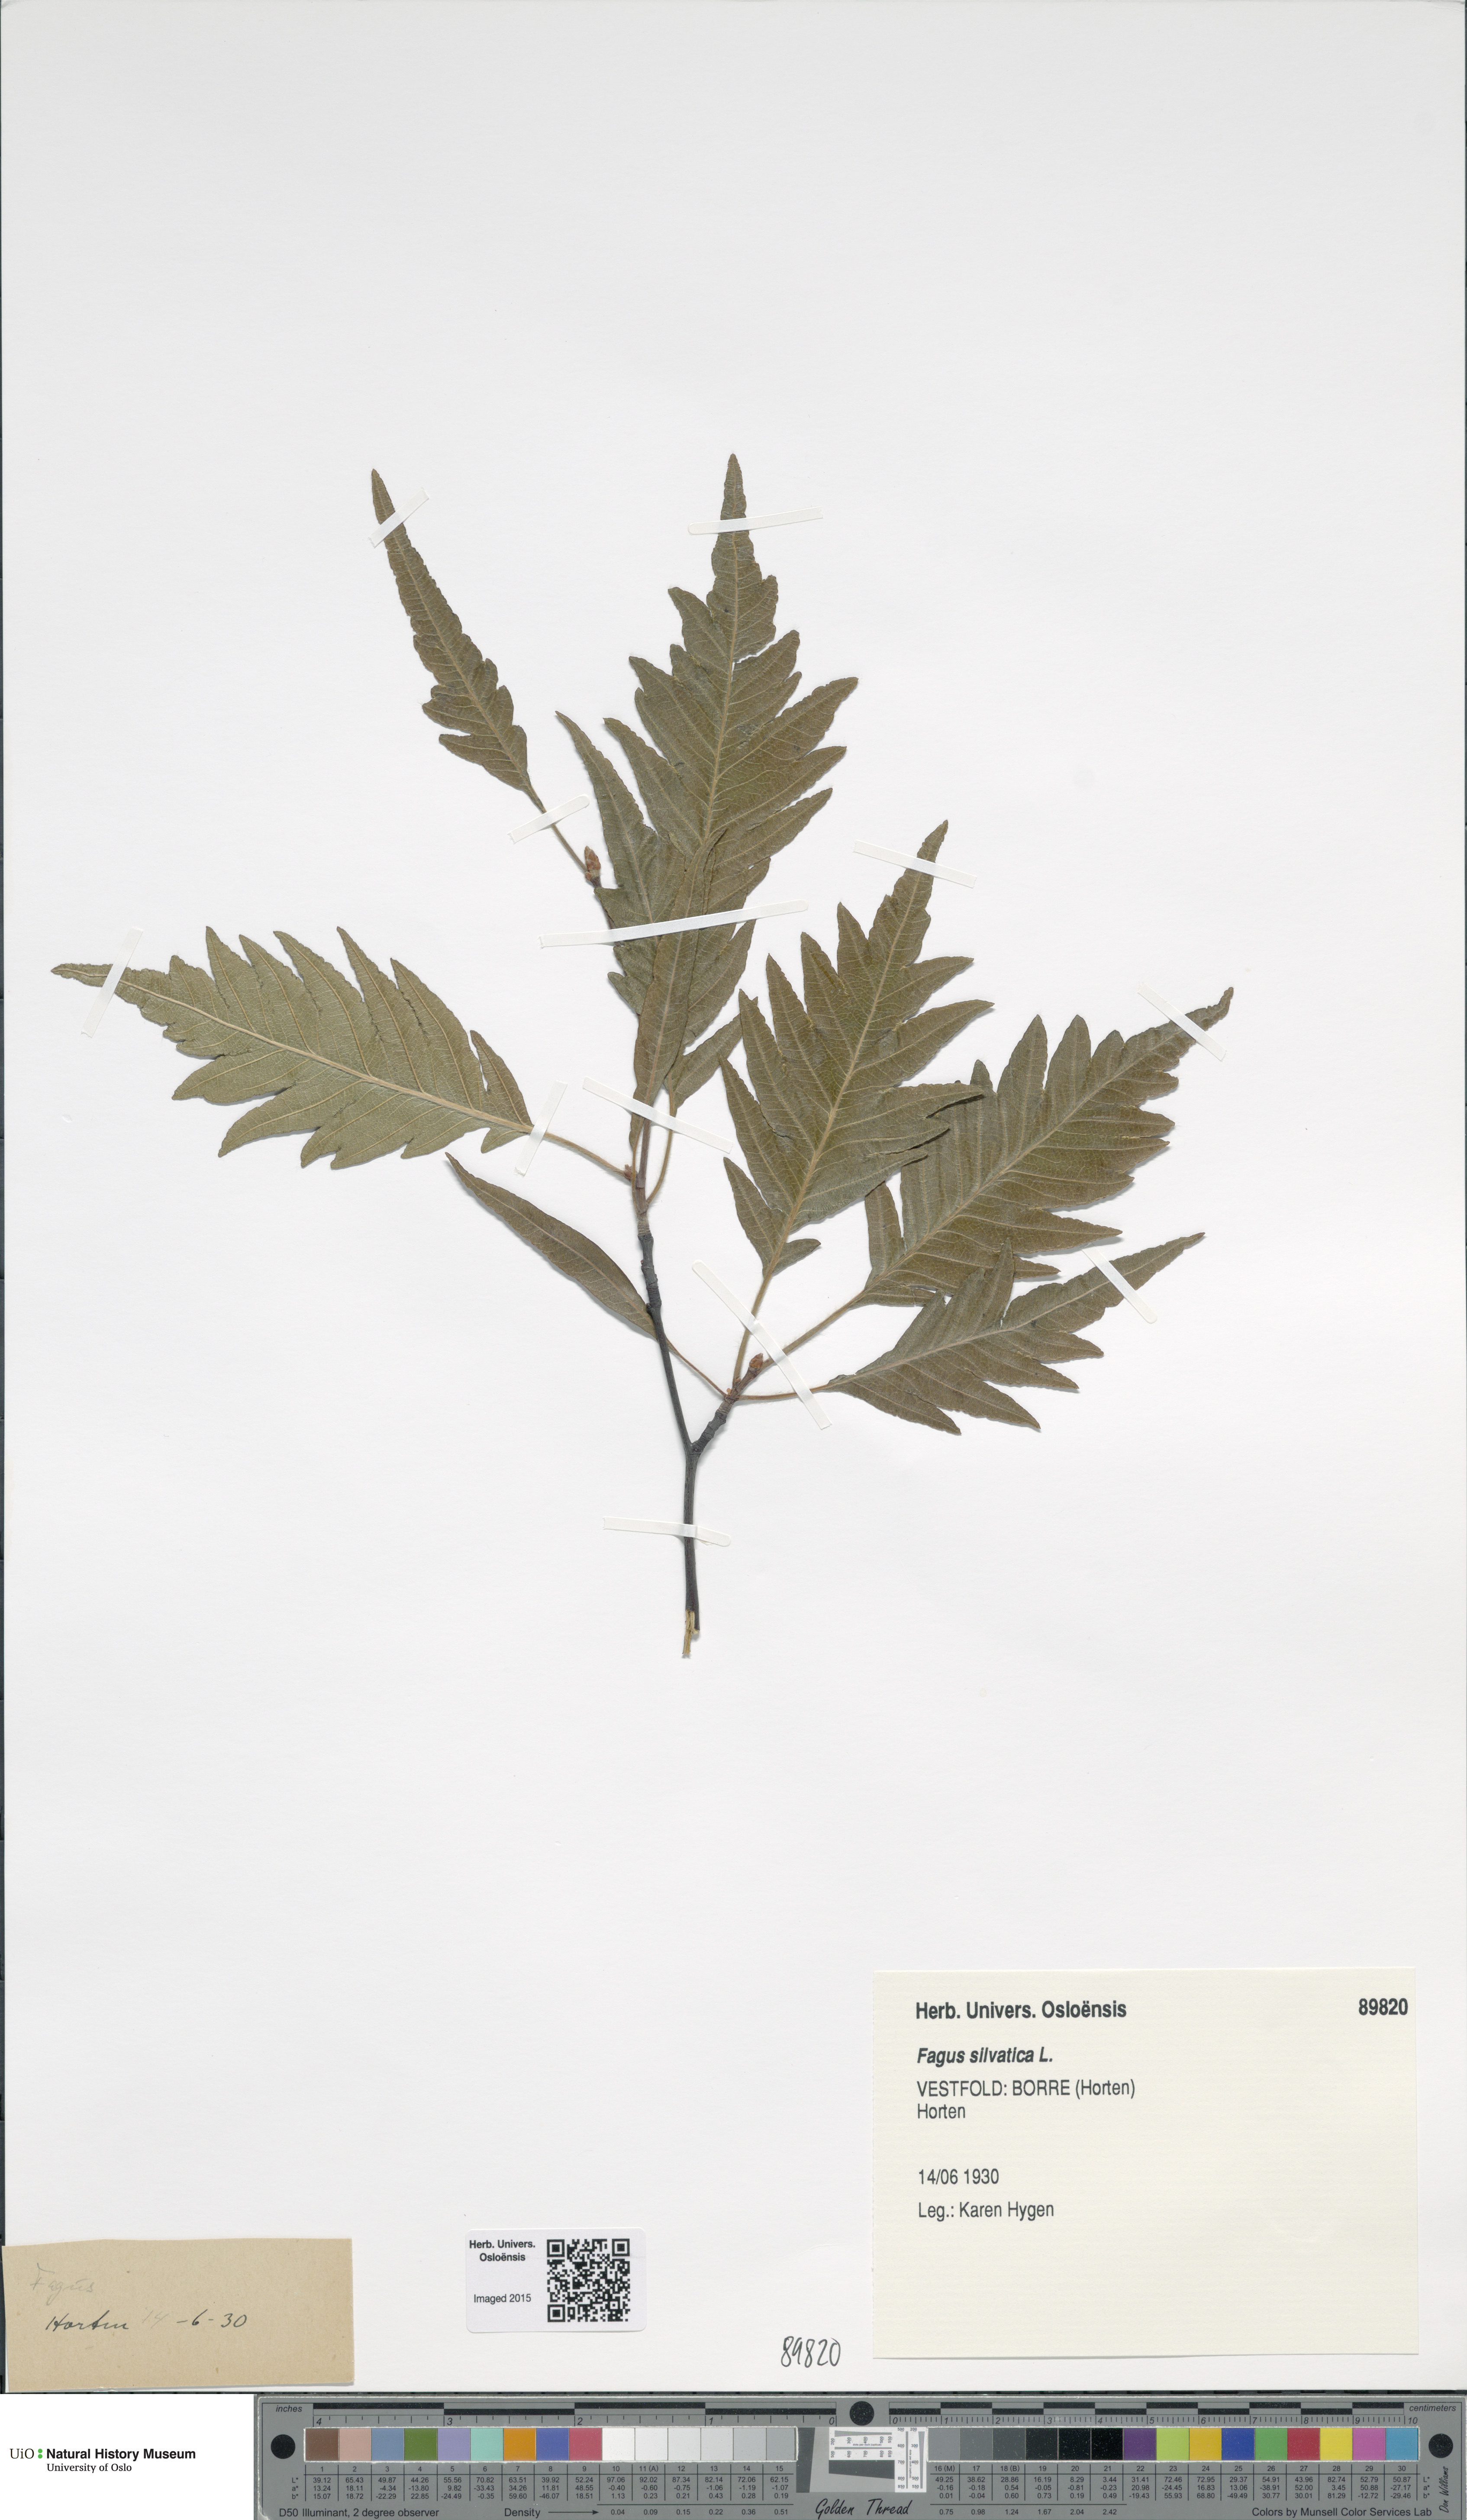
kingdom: Plantae
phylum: Tracheophyta
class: Magnoliopsida
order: Fagales
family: Fagaceae
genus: Fagus
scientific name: Fagus sylvatica
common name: Beech
